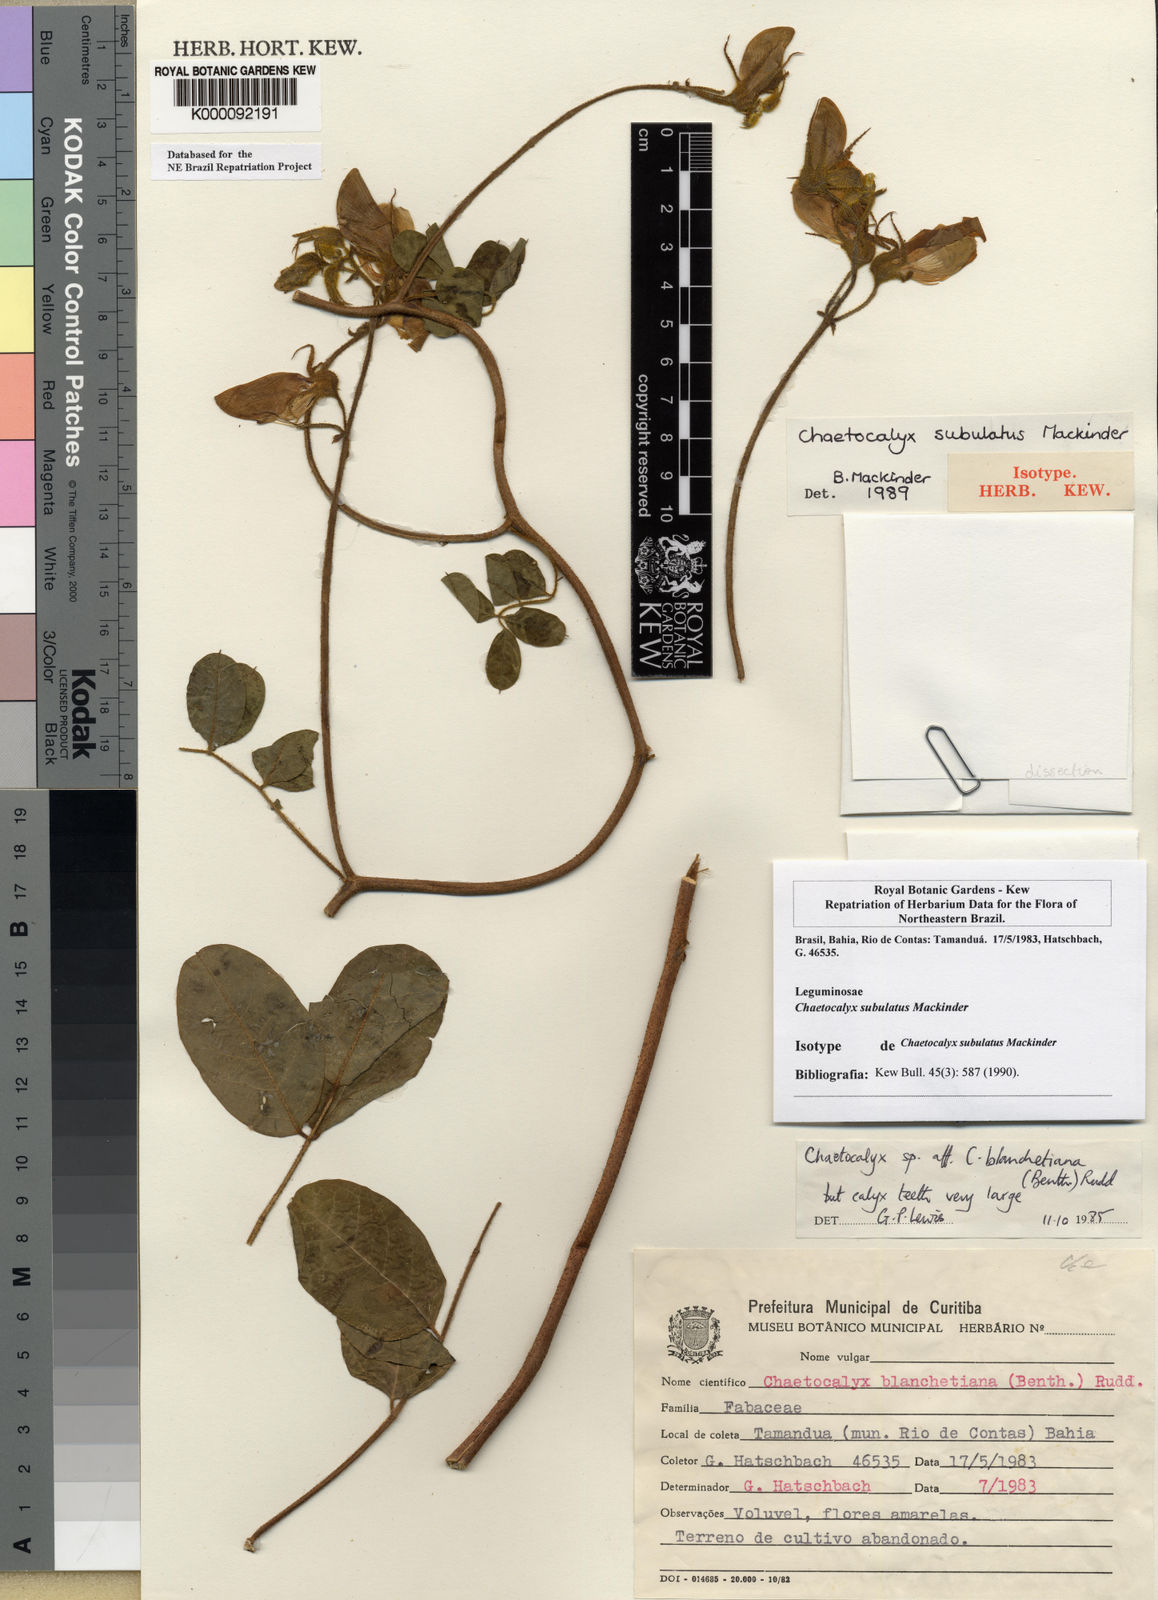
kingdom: Plantae
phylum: Tracheophyta
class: Magnoliopsida
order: Fabales
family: Fabaceae
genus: Nissolia
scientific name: Nissolia subulata
